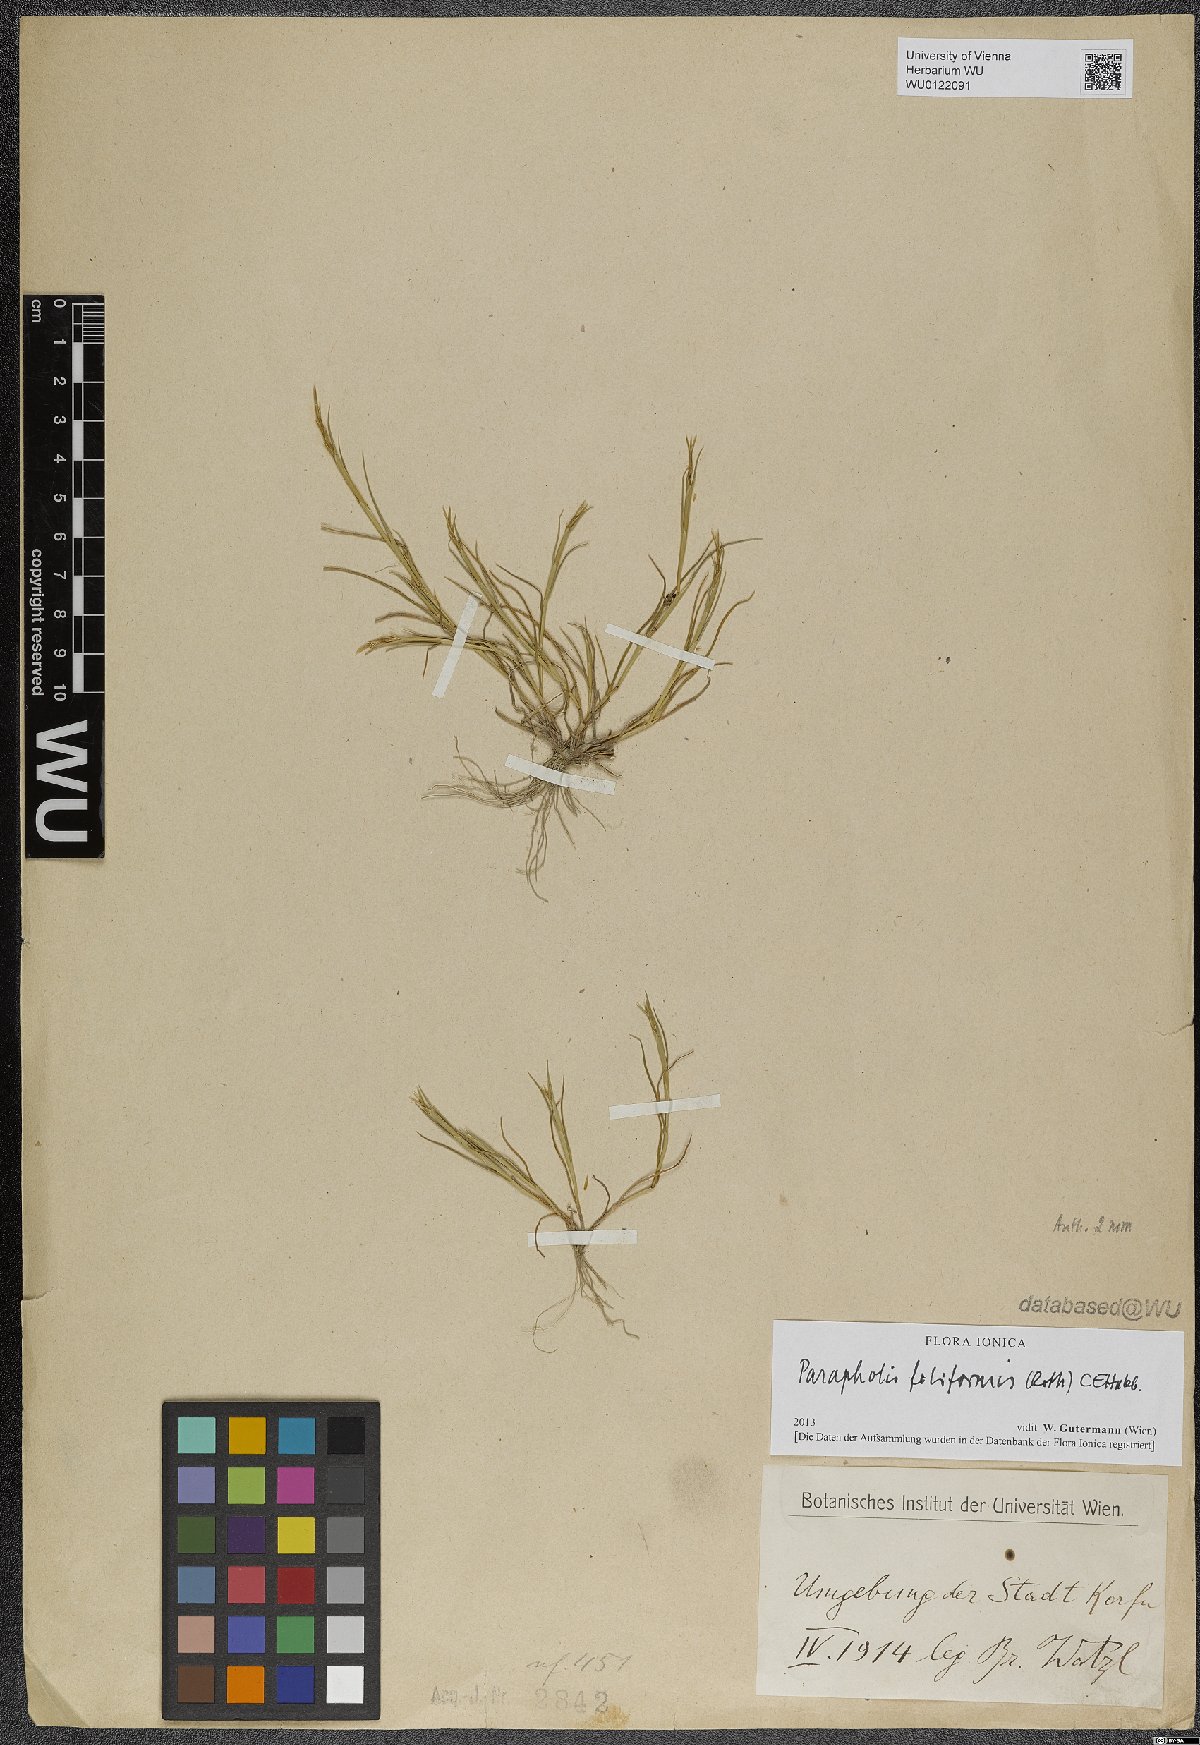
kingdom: Plantae
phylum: Tracheophyta
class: Liliopsida
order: Poales
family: Poaceae
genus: Parapholis
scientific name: Parapholis filiformis
